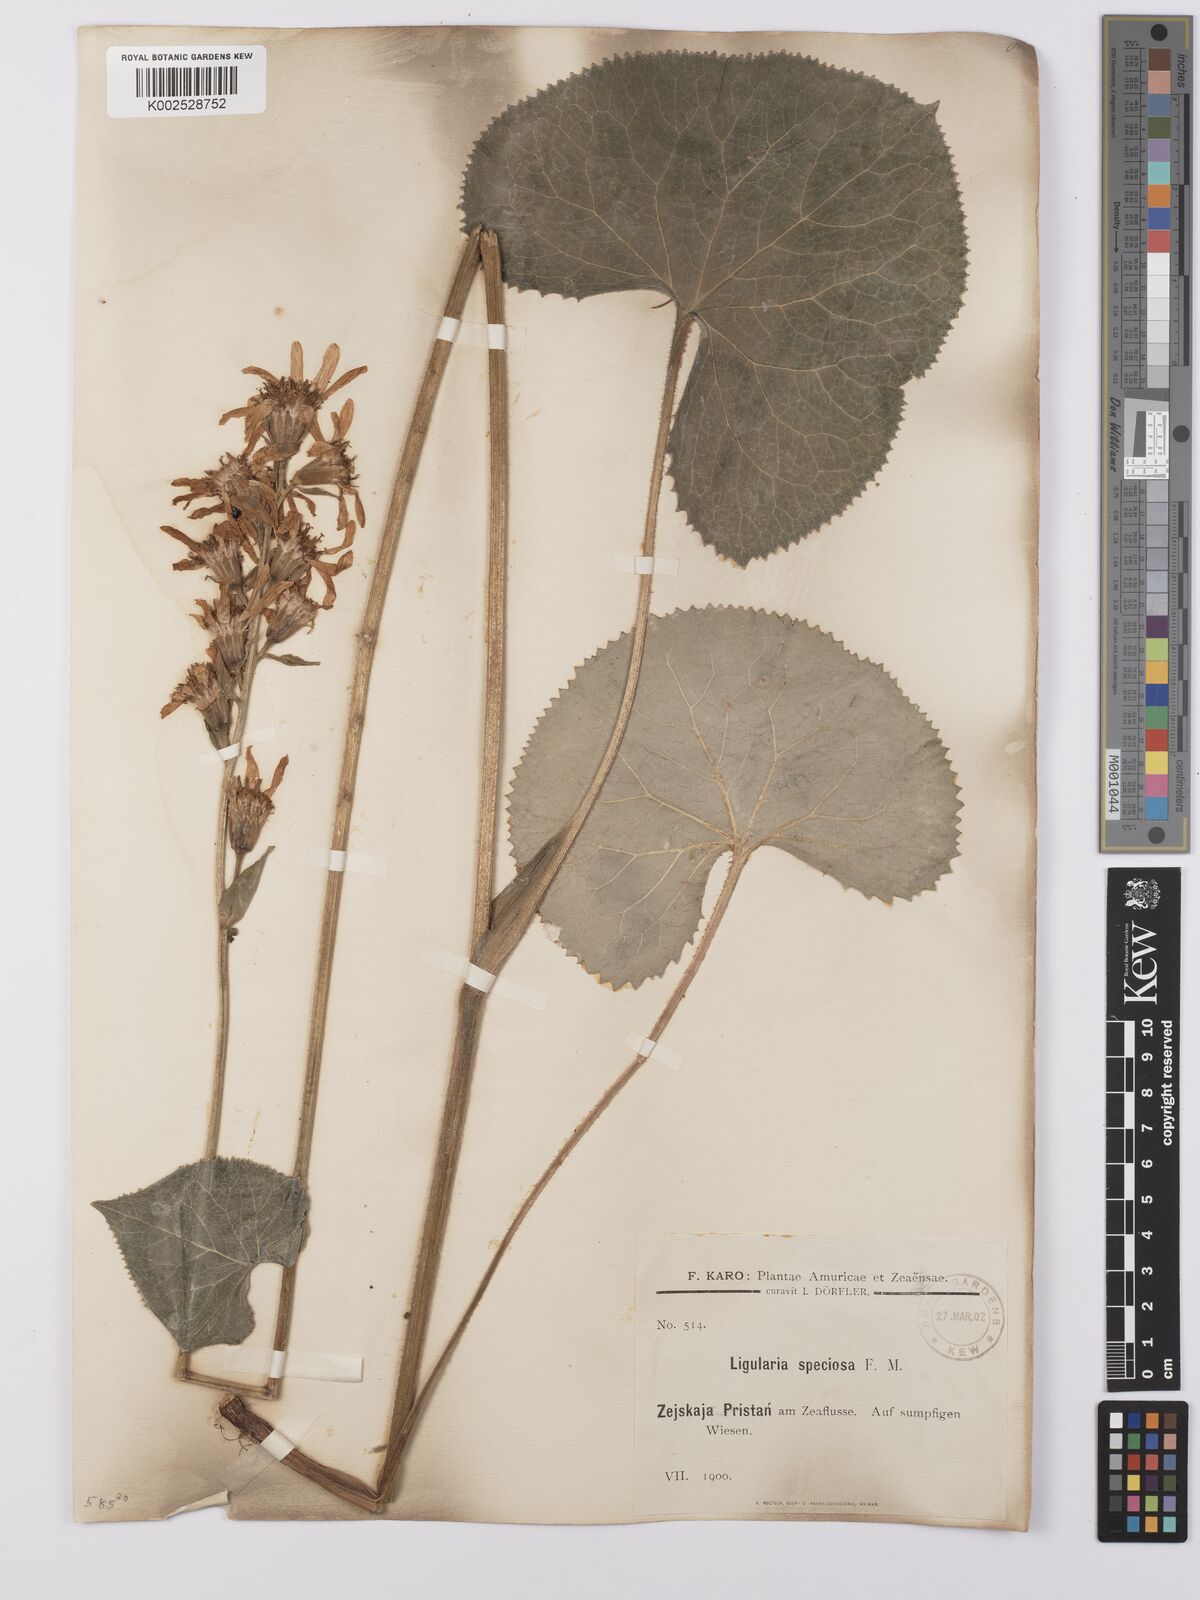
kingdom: Plantae
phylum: Tracheophyta
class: Magnoliopsida
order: Asterales
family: Asteraceae
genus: Ligularia
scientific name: Ligularia fischeri
